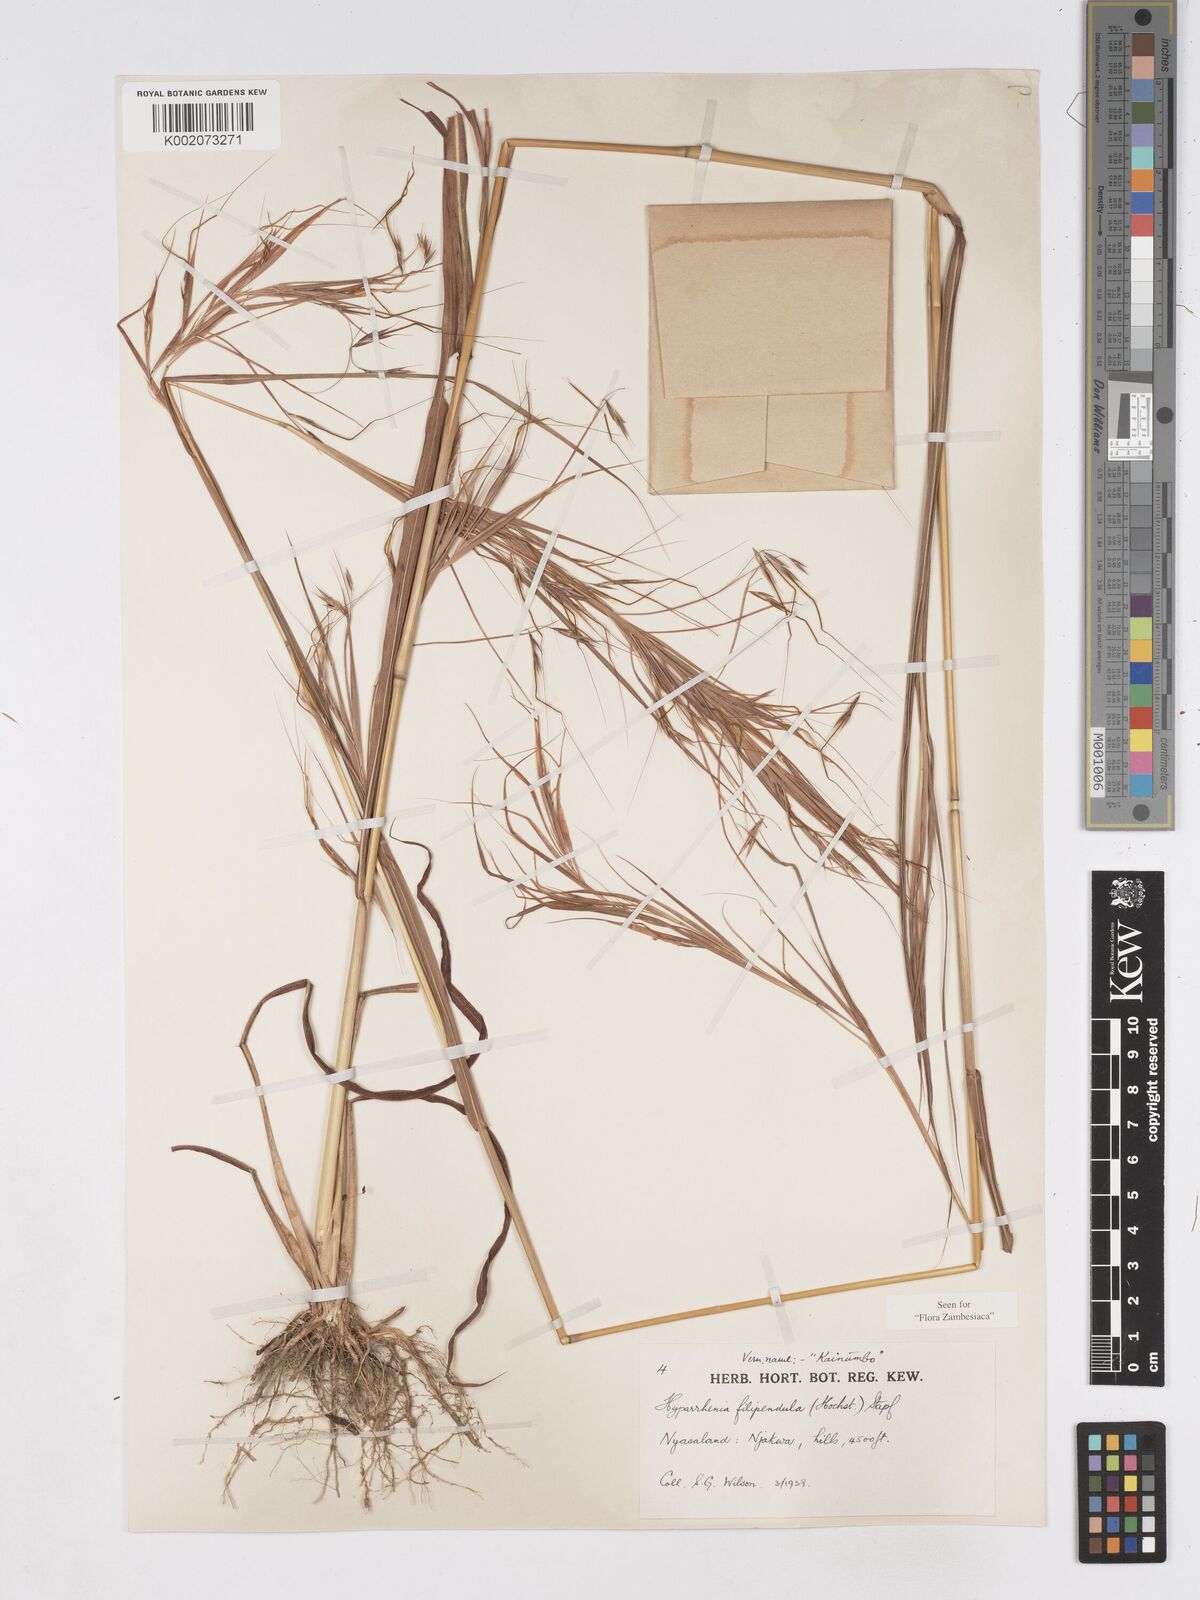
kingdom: Plantae
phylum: Tracheophyta
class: Liliopsida
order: Poales
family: Poaceae
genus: Hyparrhenia
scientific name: Hyparrhenia filipendula
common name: Tambookie grass
